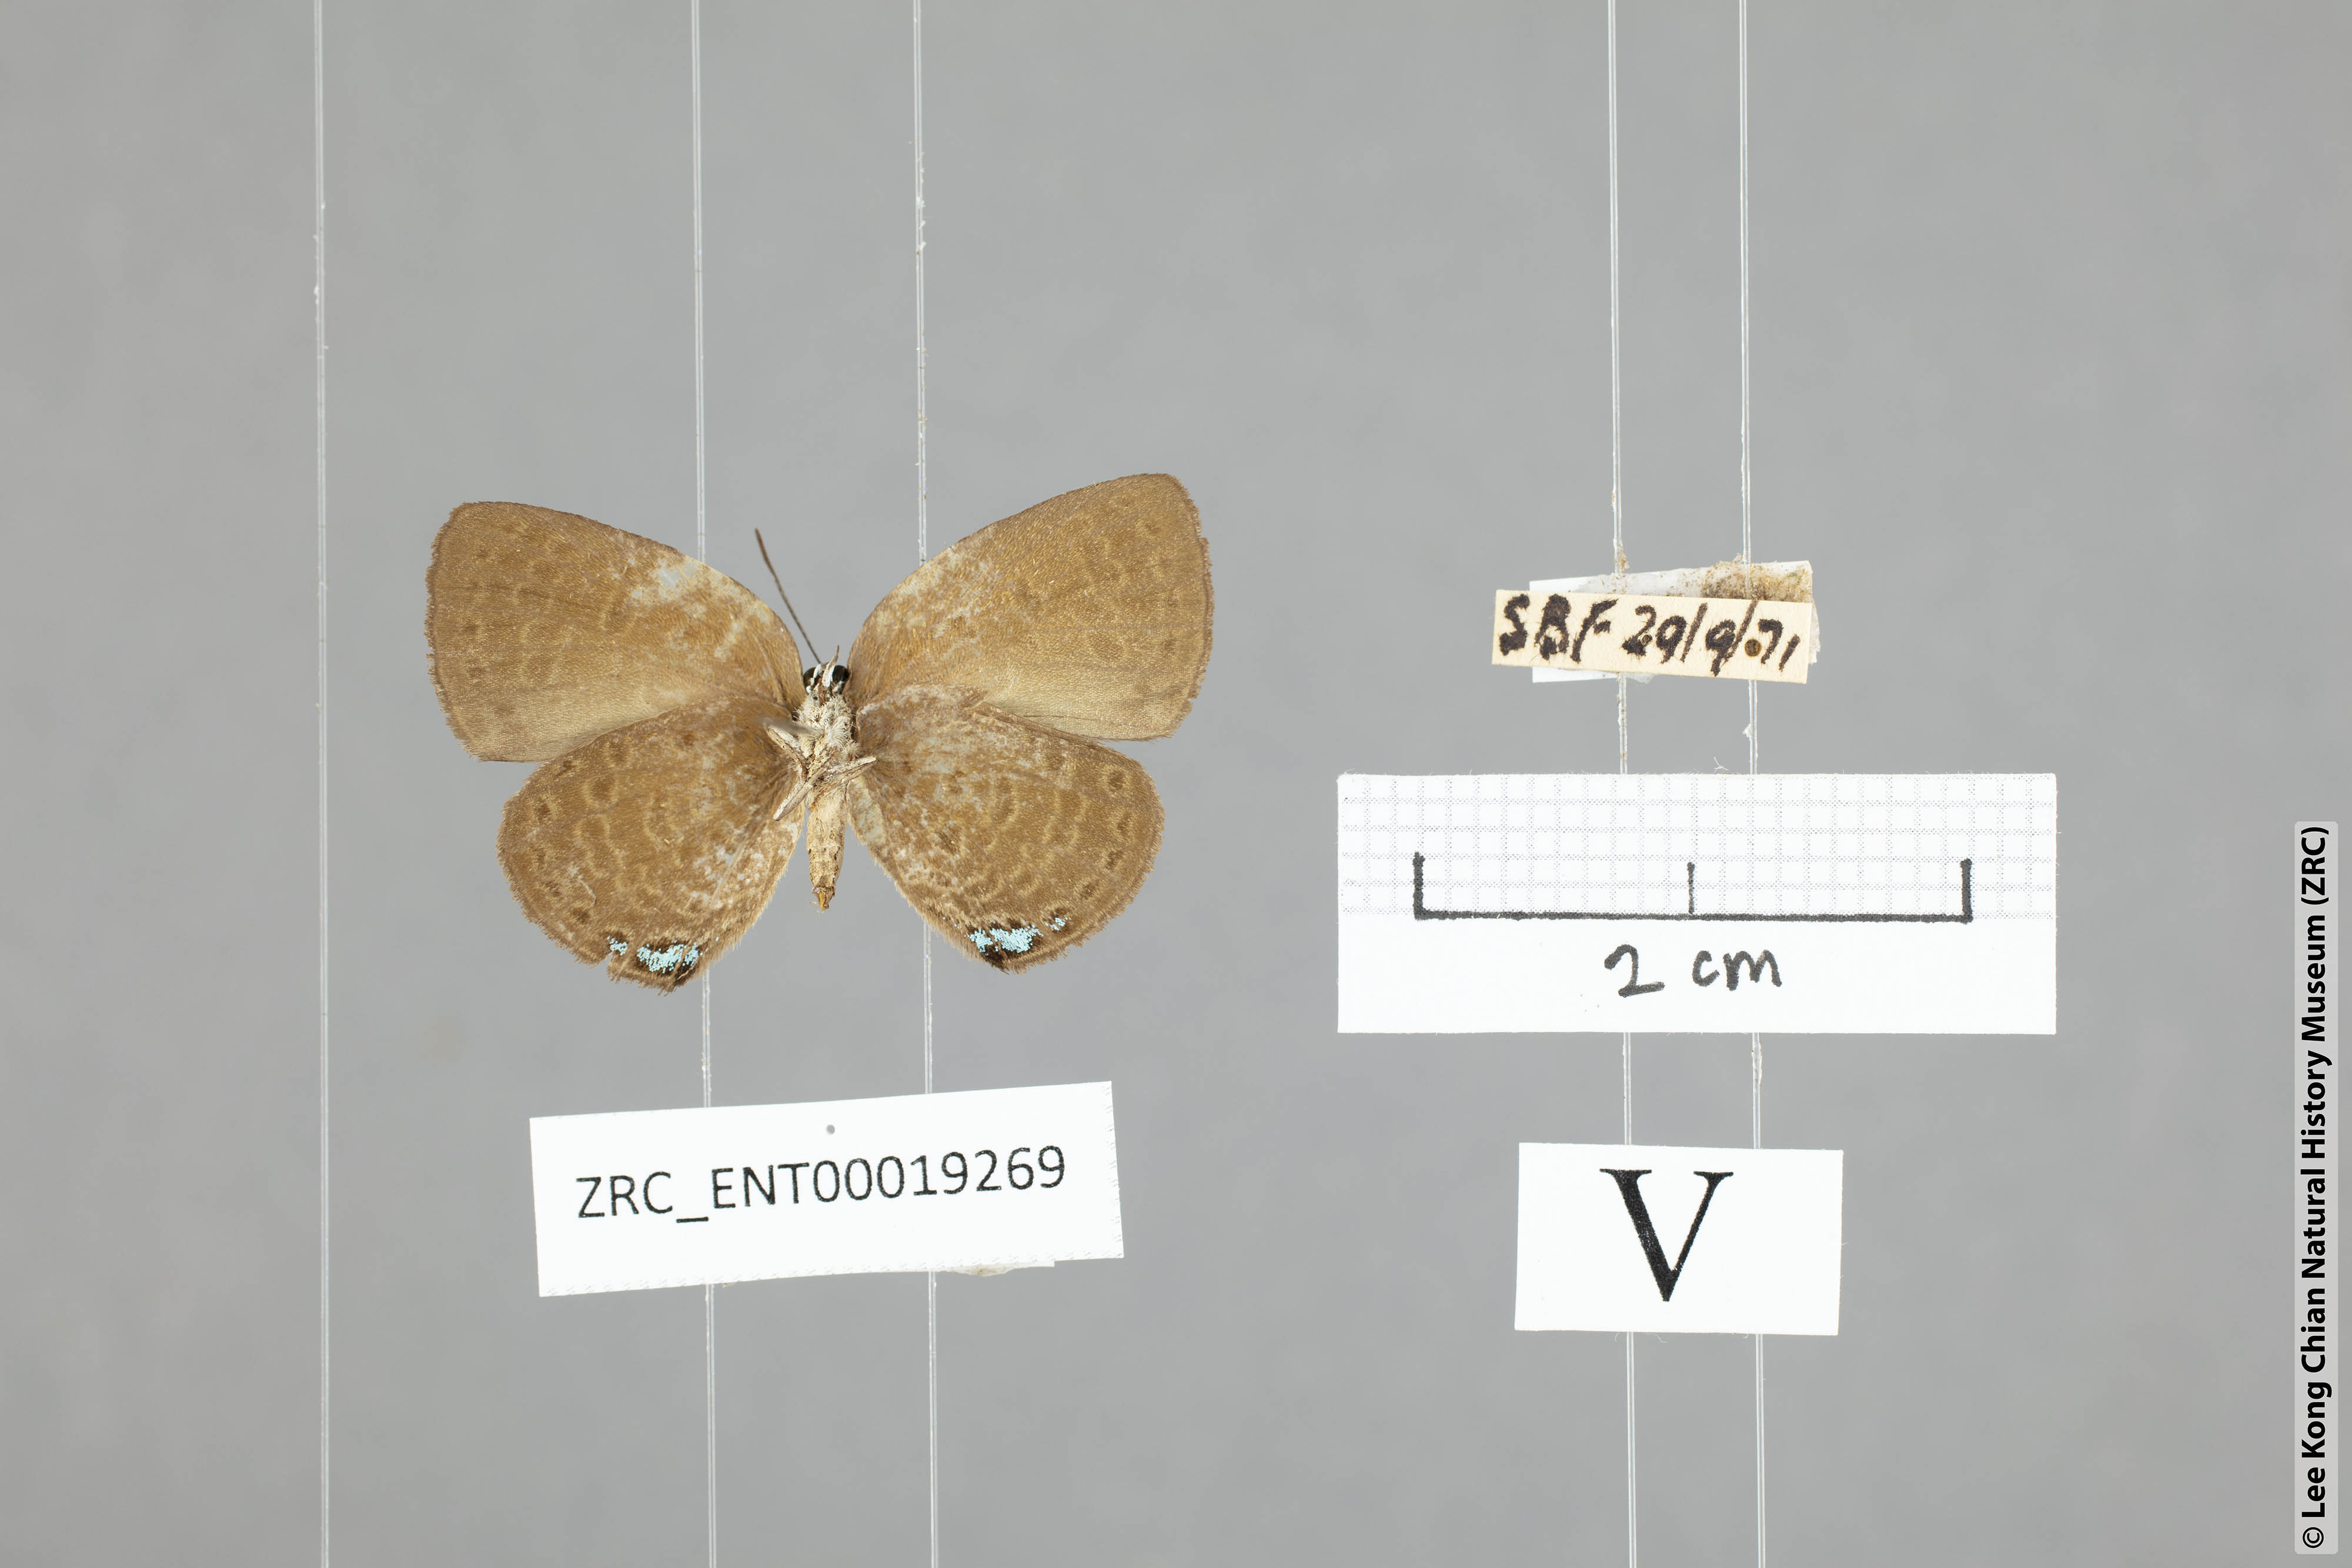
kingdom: Animalia
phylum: Arthropoda
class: Insecta
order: Lepidoptera
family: Lycaenidae
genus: Arhopala
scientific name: Arhopala avathina
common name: Lunulate yellow oakblue
